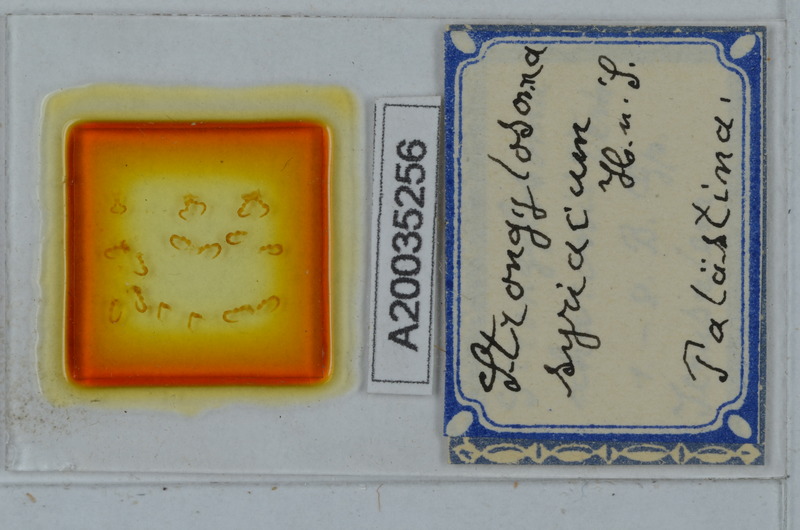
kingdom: Animalia
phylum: Arthropoda
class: Diplopoda
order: Polydesmida
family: Paradoxosomatidae
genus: Tetrarthrosoma
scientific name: Tetrarthrosoma syriacum
